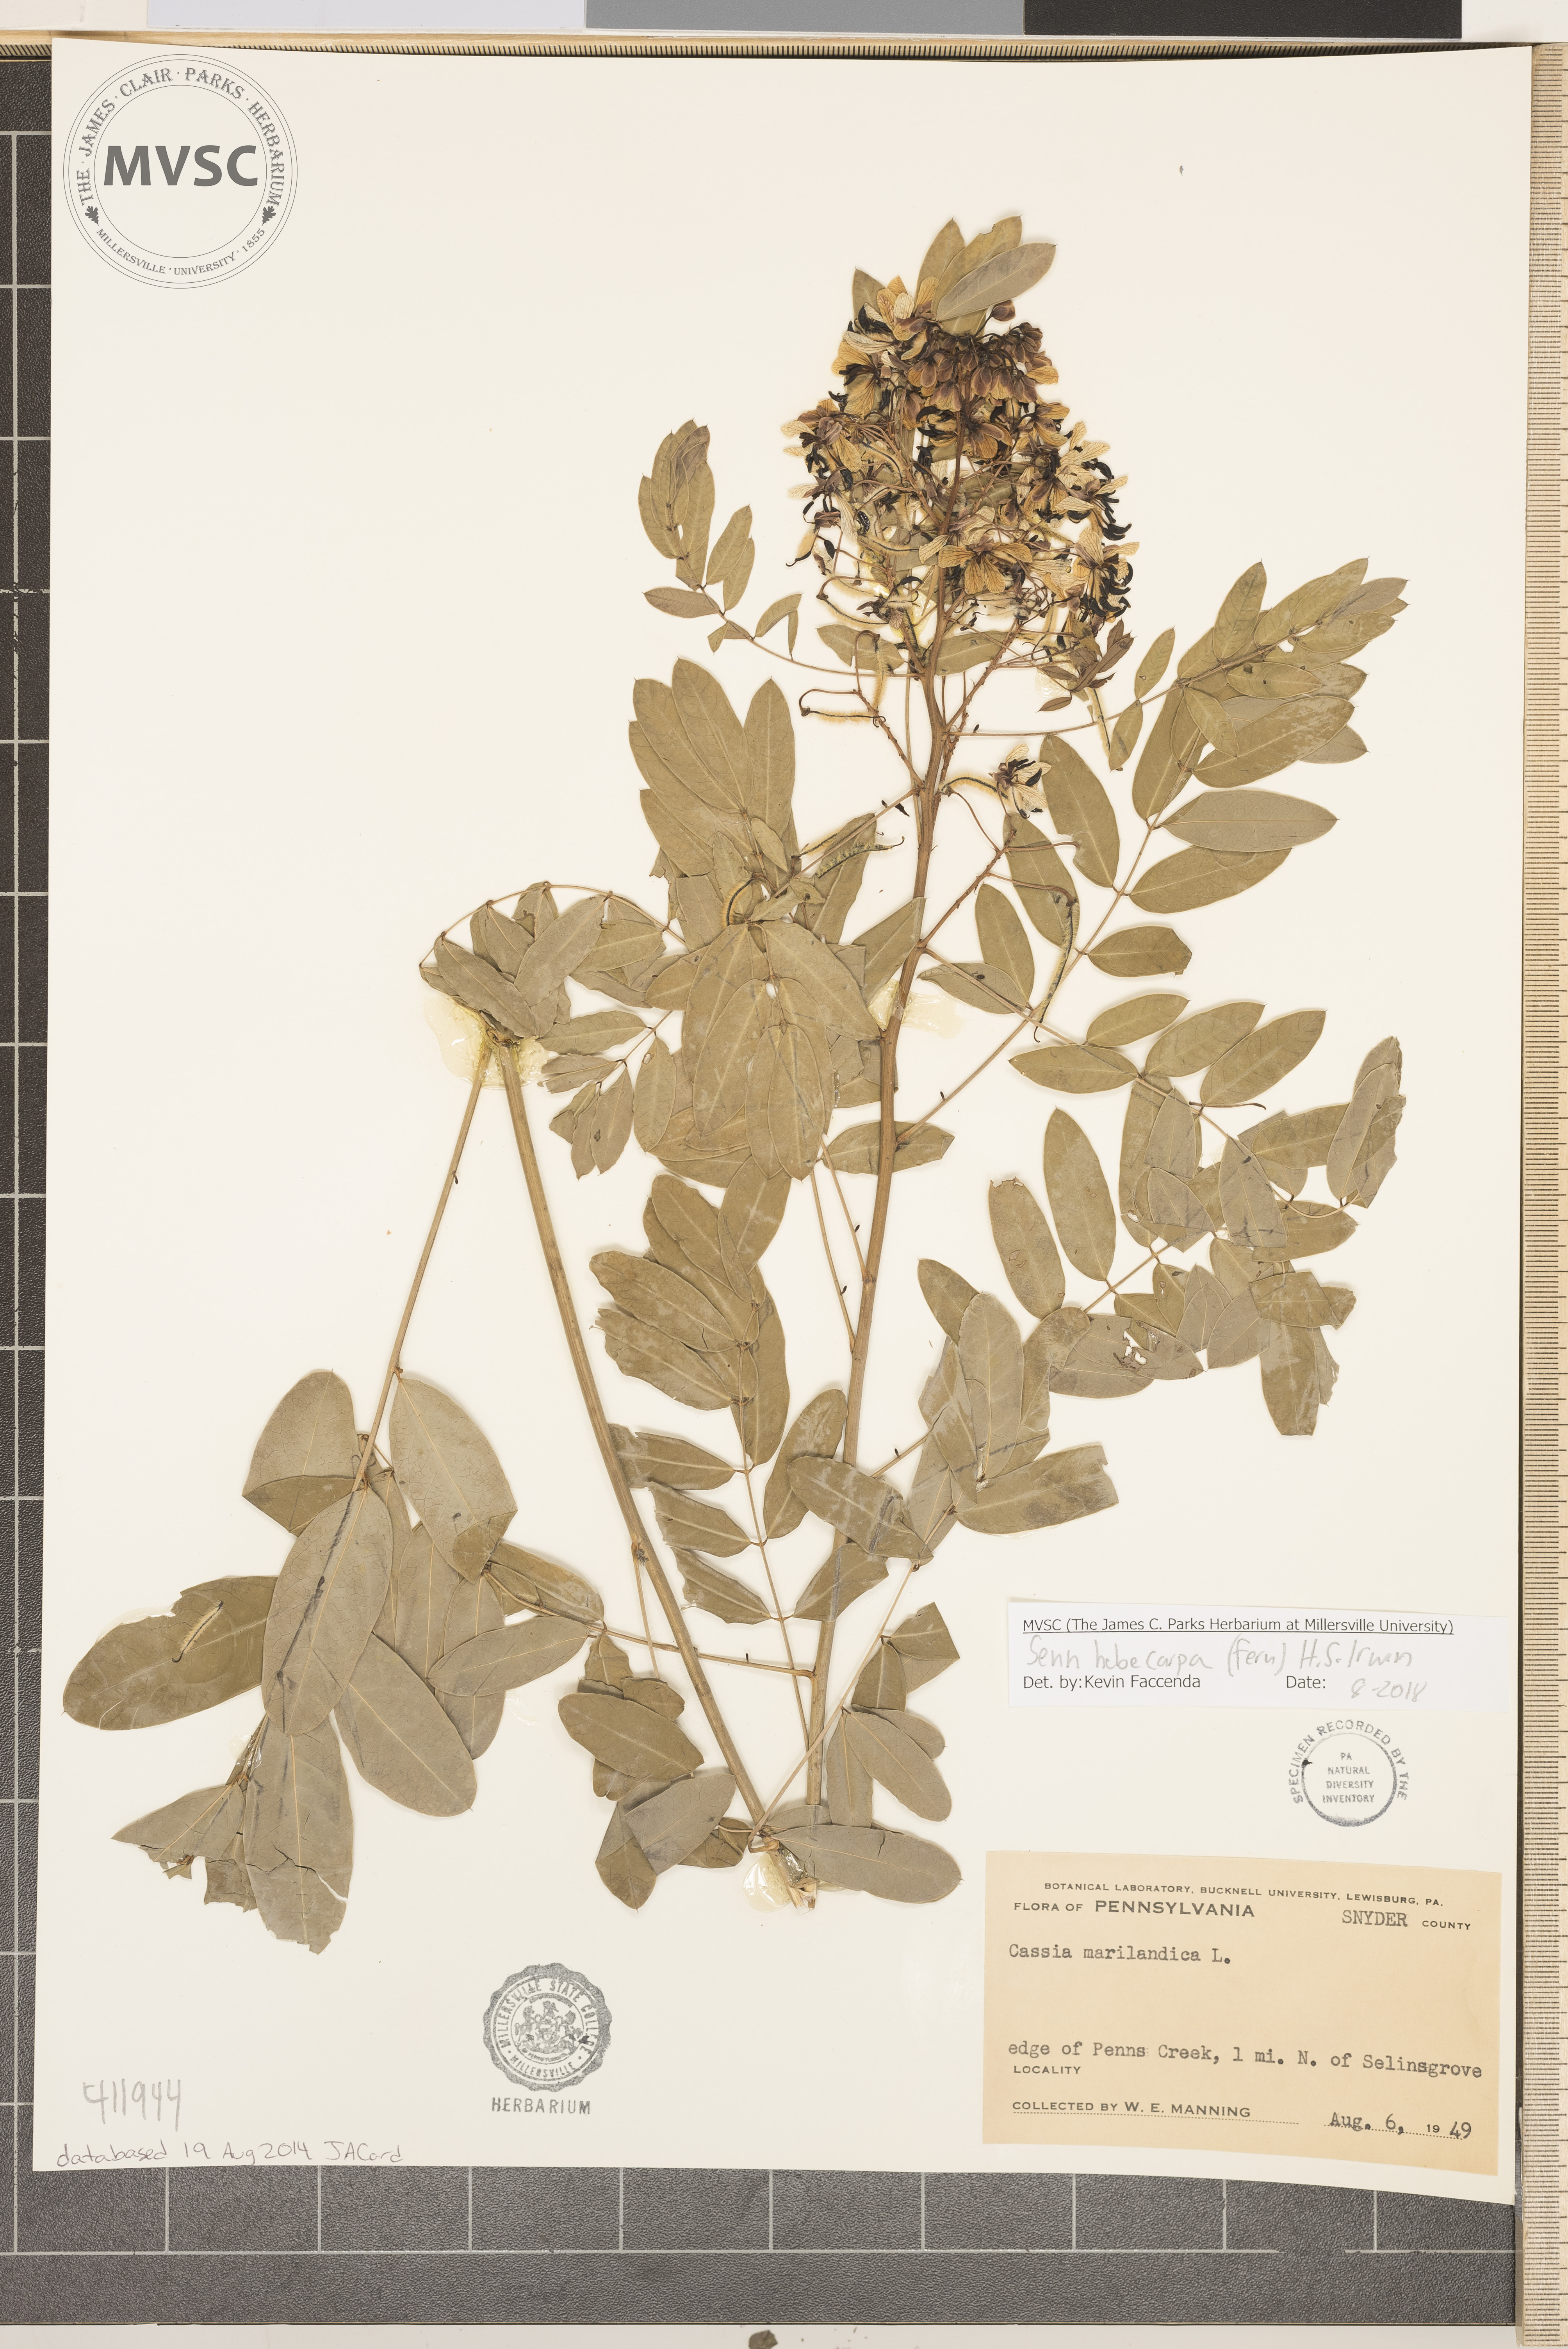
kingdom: Plantae
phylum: Tracheophyta
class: Magnoliopsida
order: Fabales
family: Fabaceae
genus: Senna
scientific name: Senna hebecarpa
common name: Wild senna
